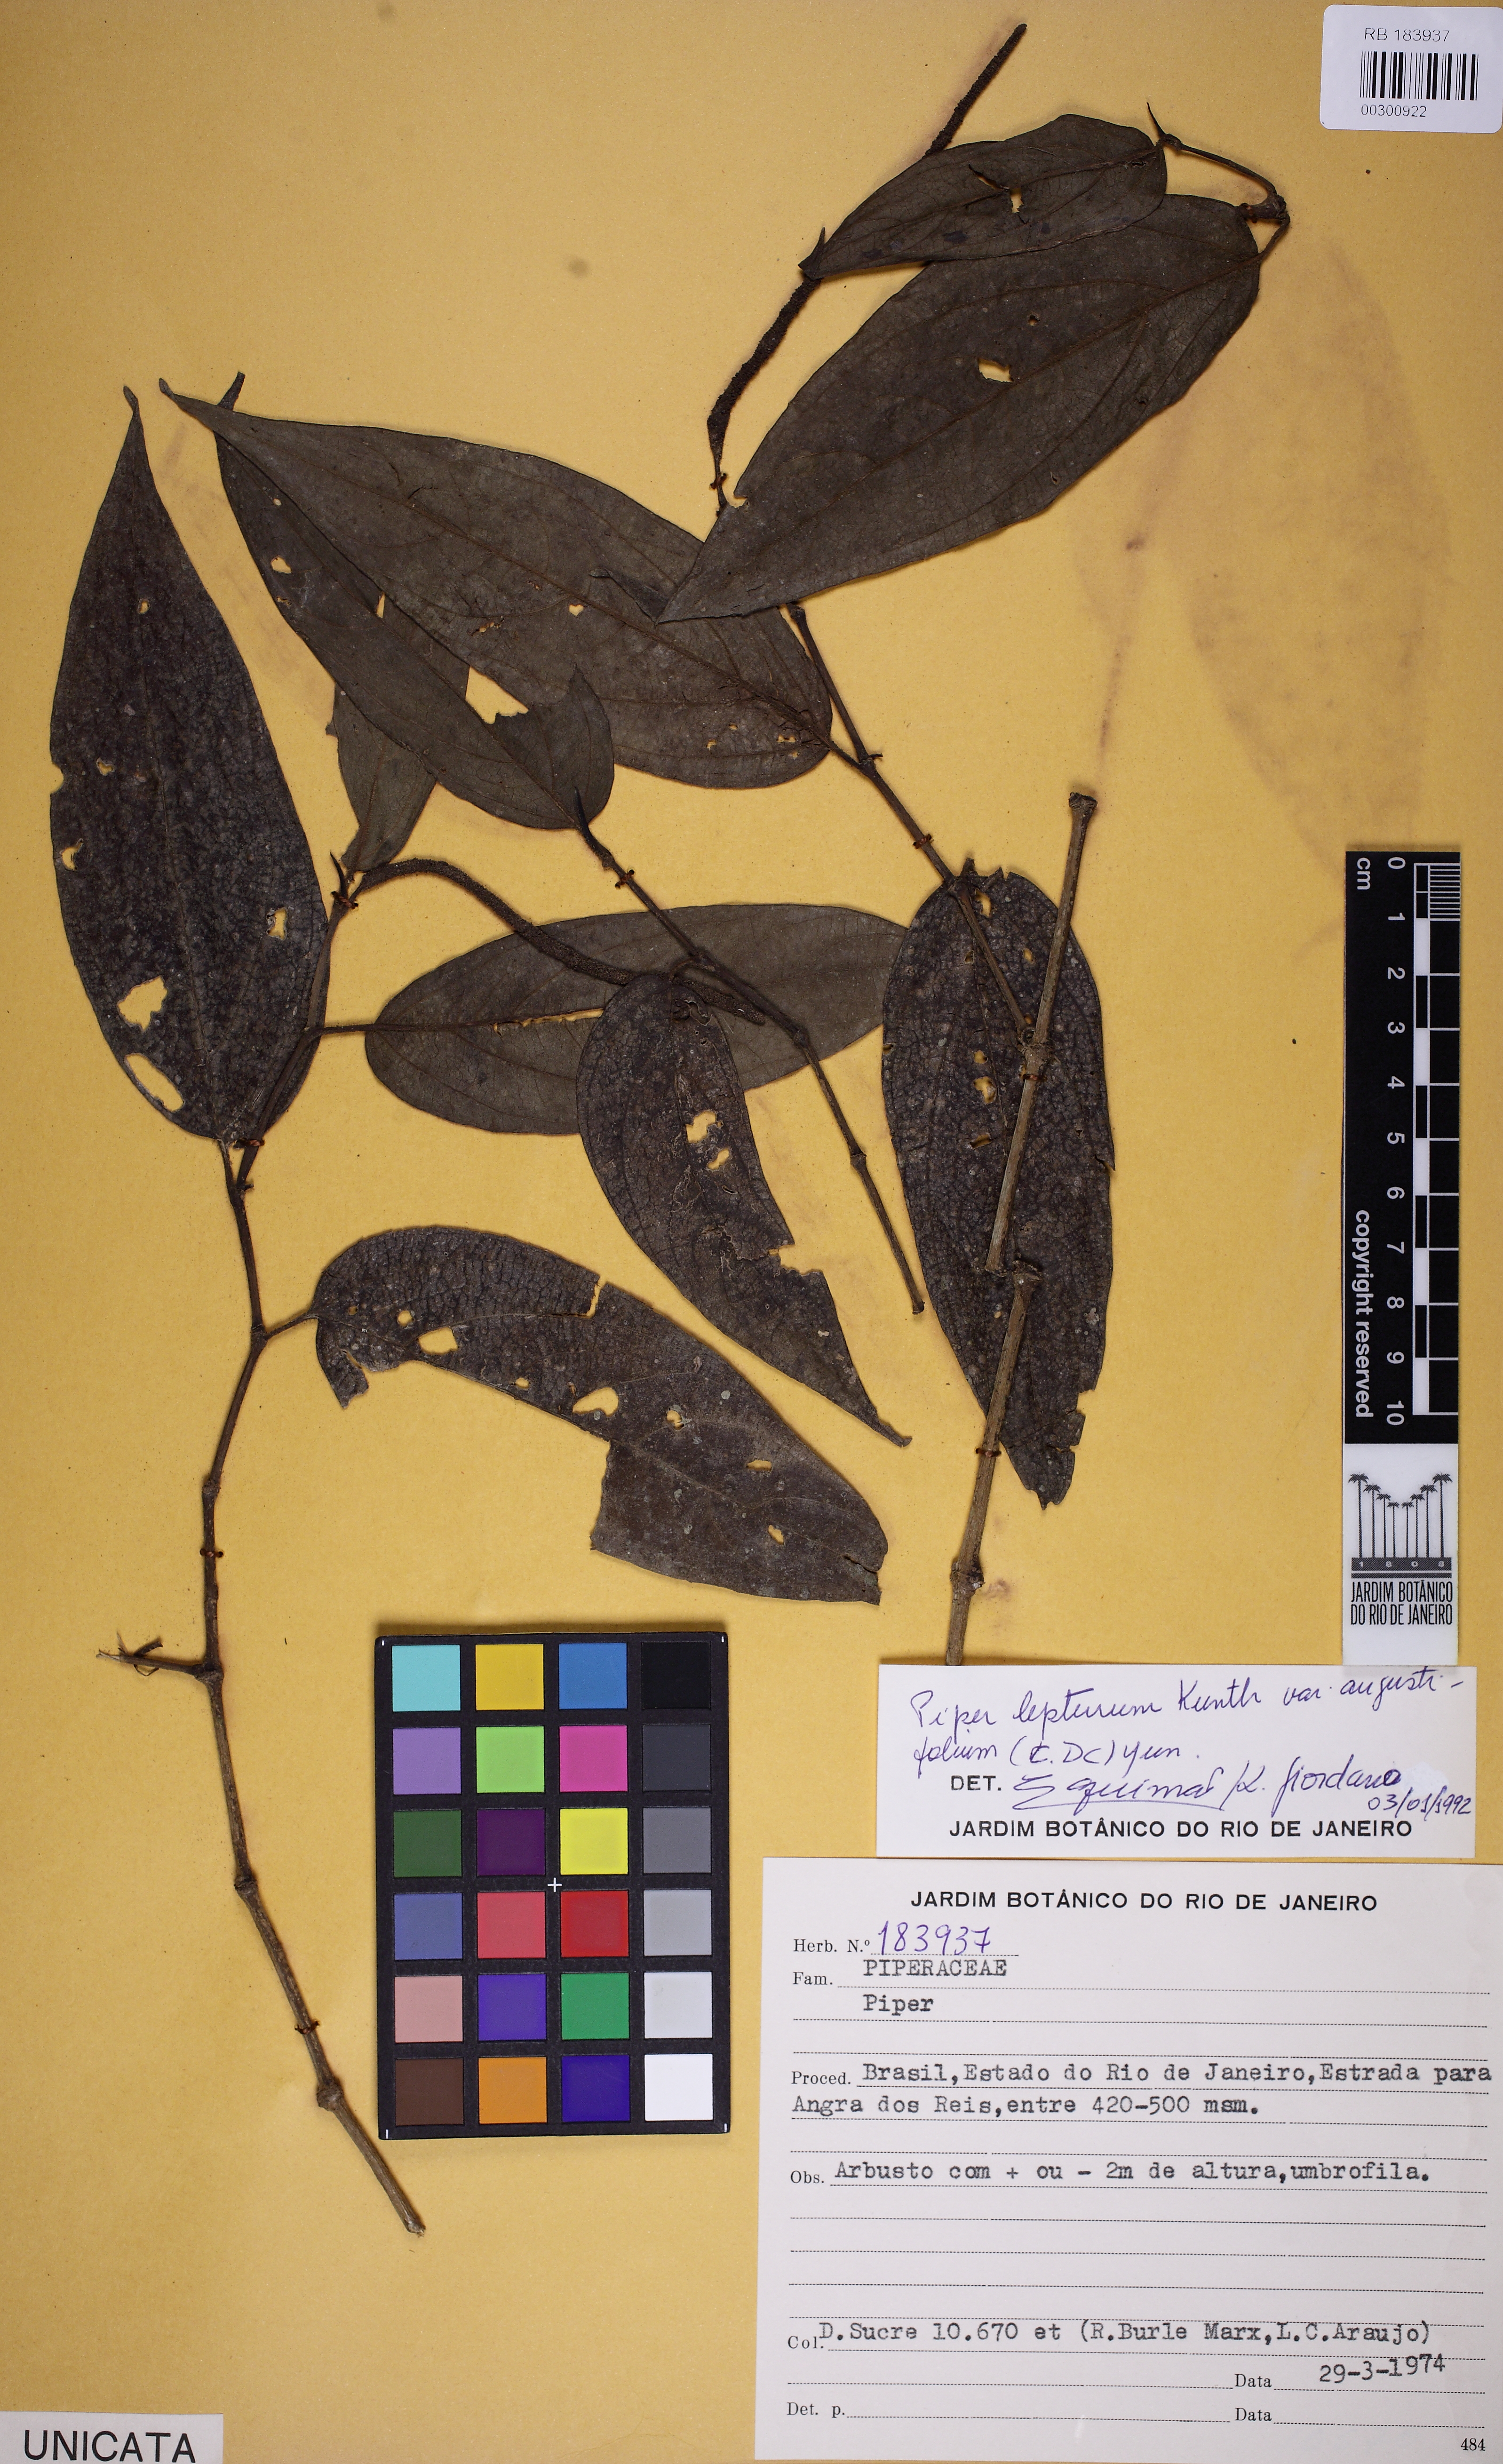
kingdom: Plantae
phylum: Tracheophyta
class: Magnoliopsida
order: Piperales
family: Piperaceae
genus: Piper
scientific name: Piper lepturum
